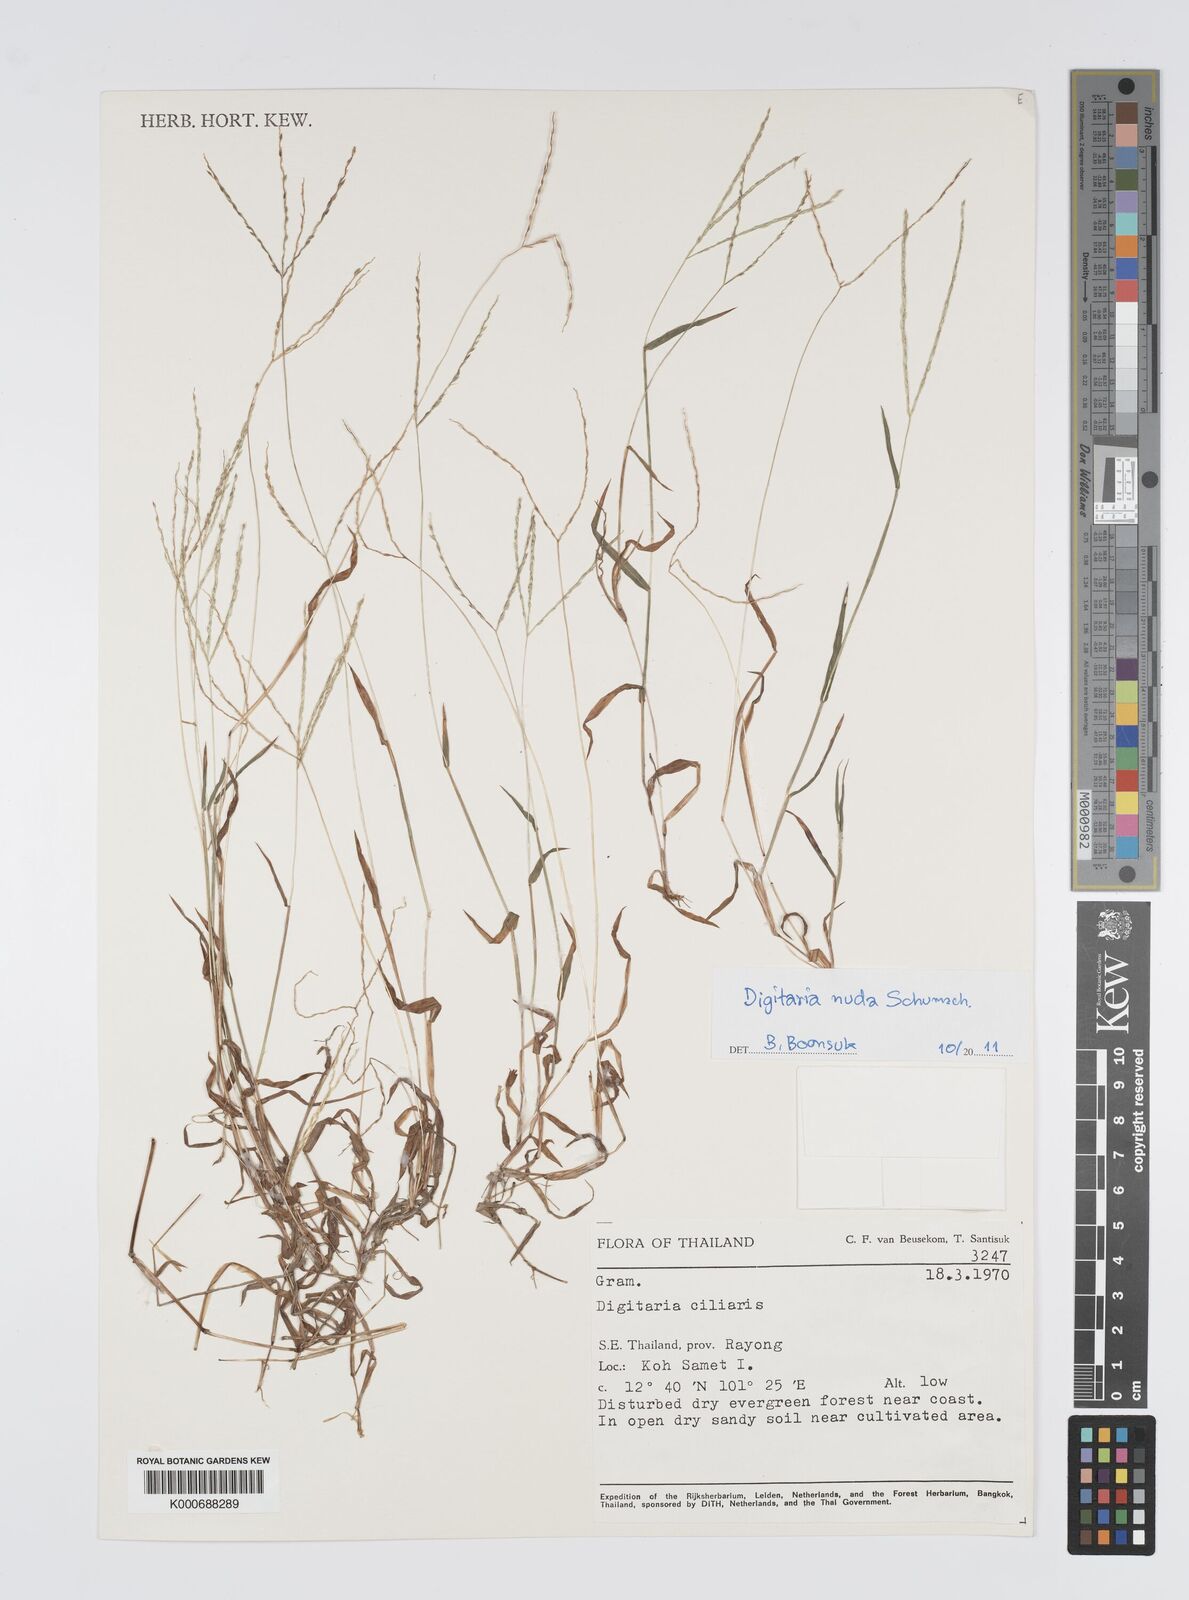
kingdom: Plantae
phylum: Tracheophyta
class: Liliopsida
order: Poales
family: Poaceae
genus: Digitaria
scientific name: Digitaria ciliaris
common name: Tropical finger-grass
